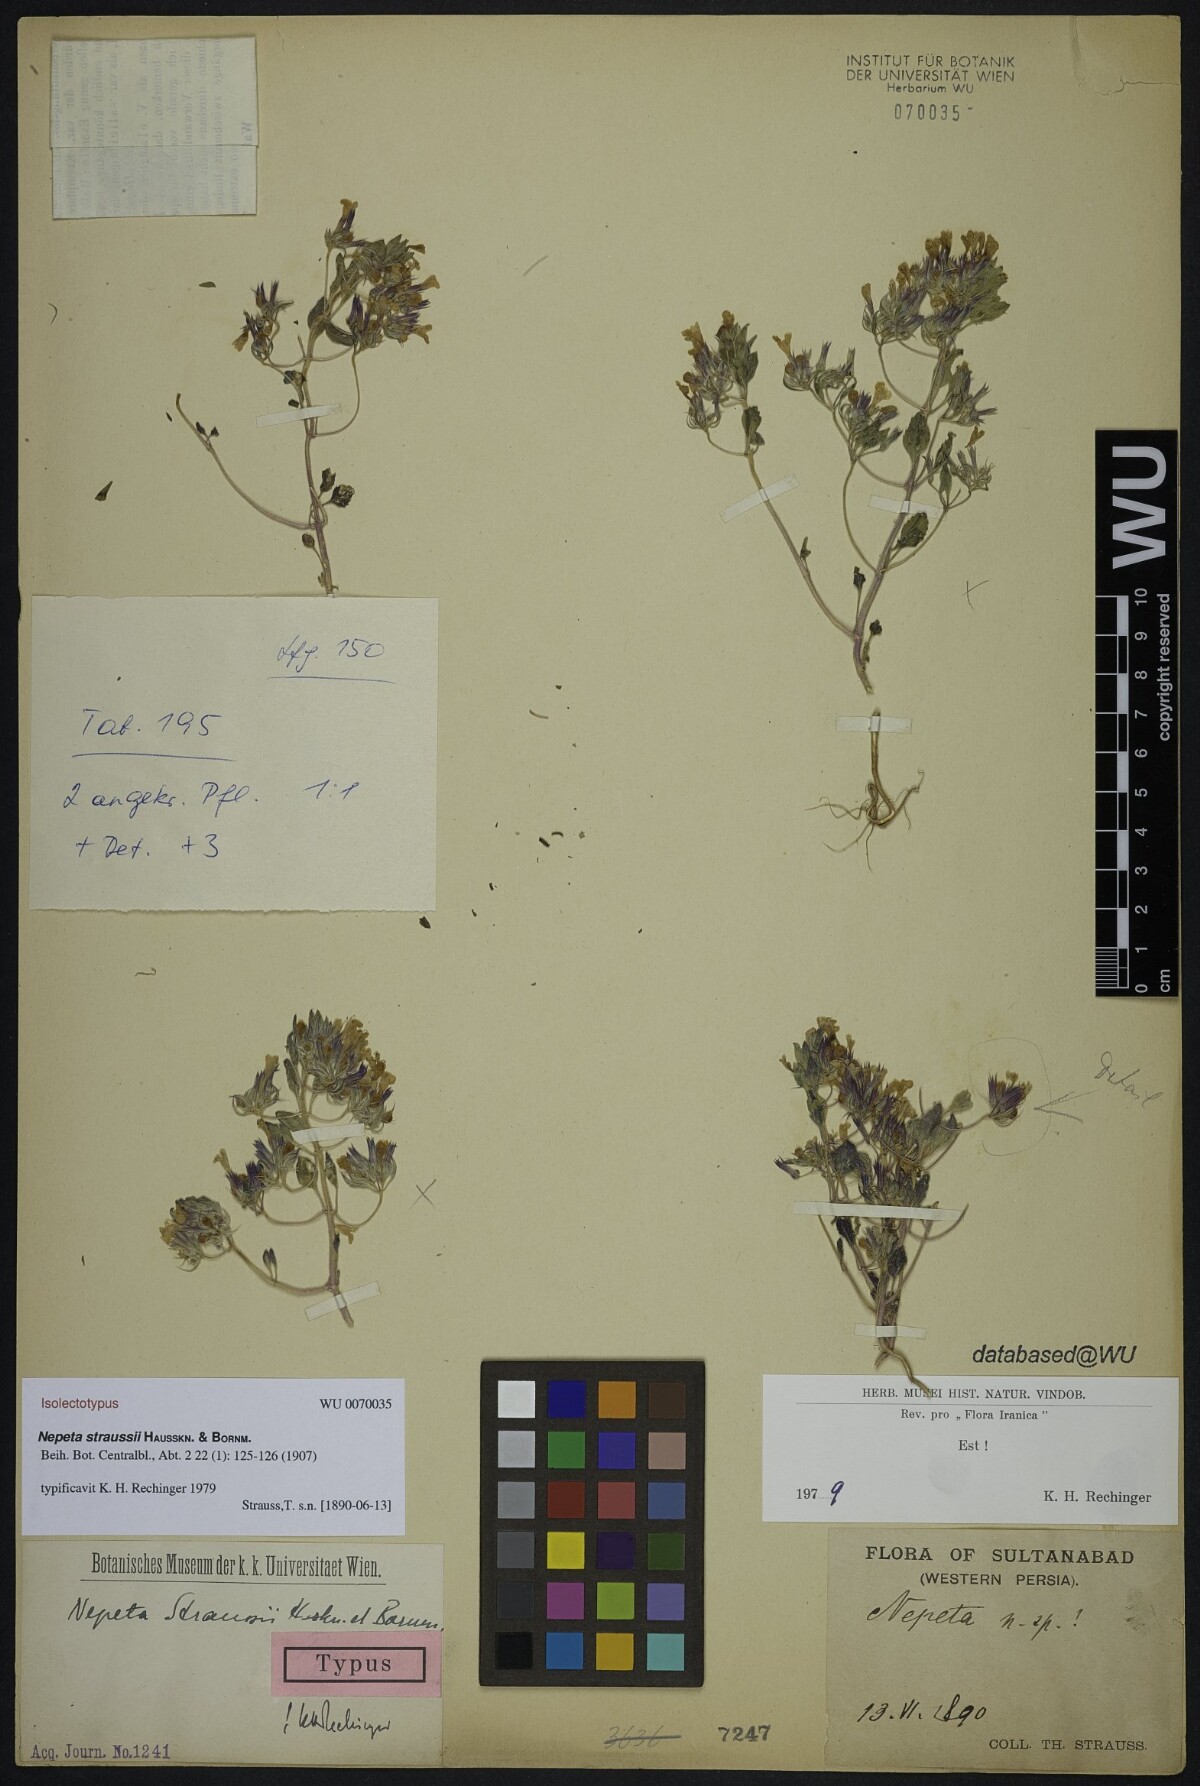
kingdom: Plantae
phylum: Tracheophyta
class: Magnoliopsida
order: Lamiales
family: Lamiaceae
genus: Nepeta
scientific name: Nepeta straussii
